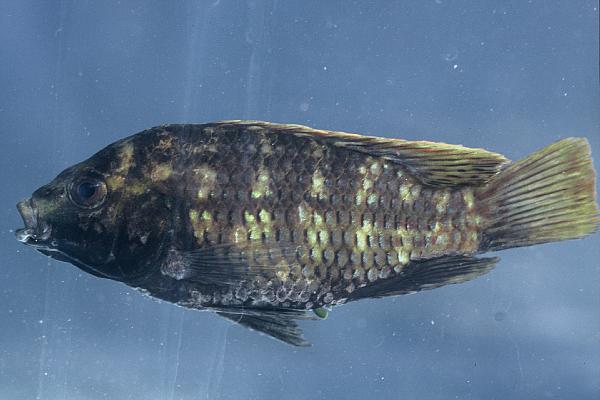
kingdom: Animalia
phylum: Chordata
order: Perciformes
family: Cichlidae
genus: Tilapia
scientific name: Tilapia guinasana
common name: Otjikoto tilapia
